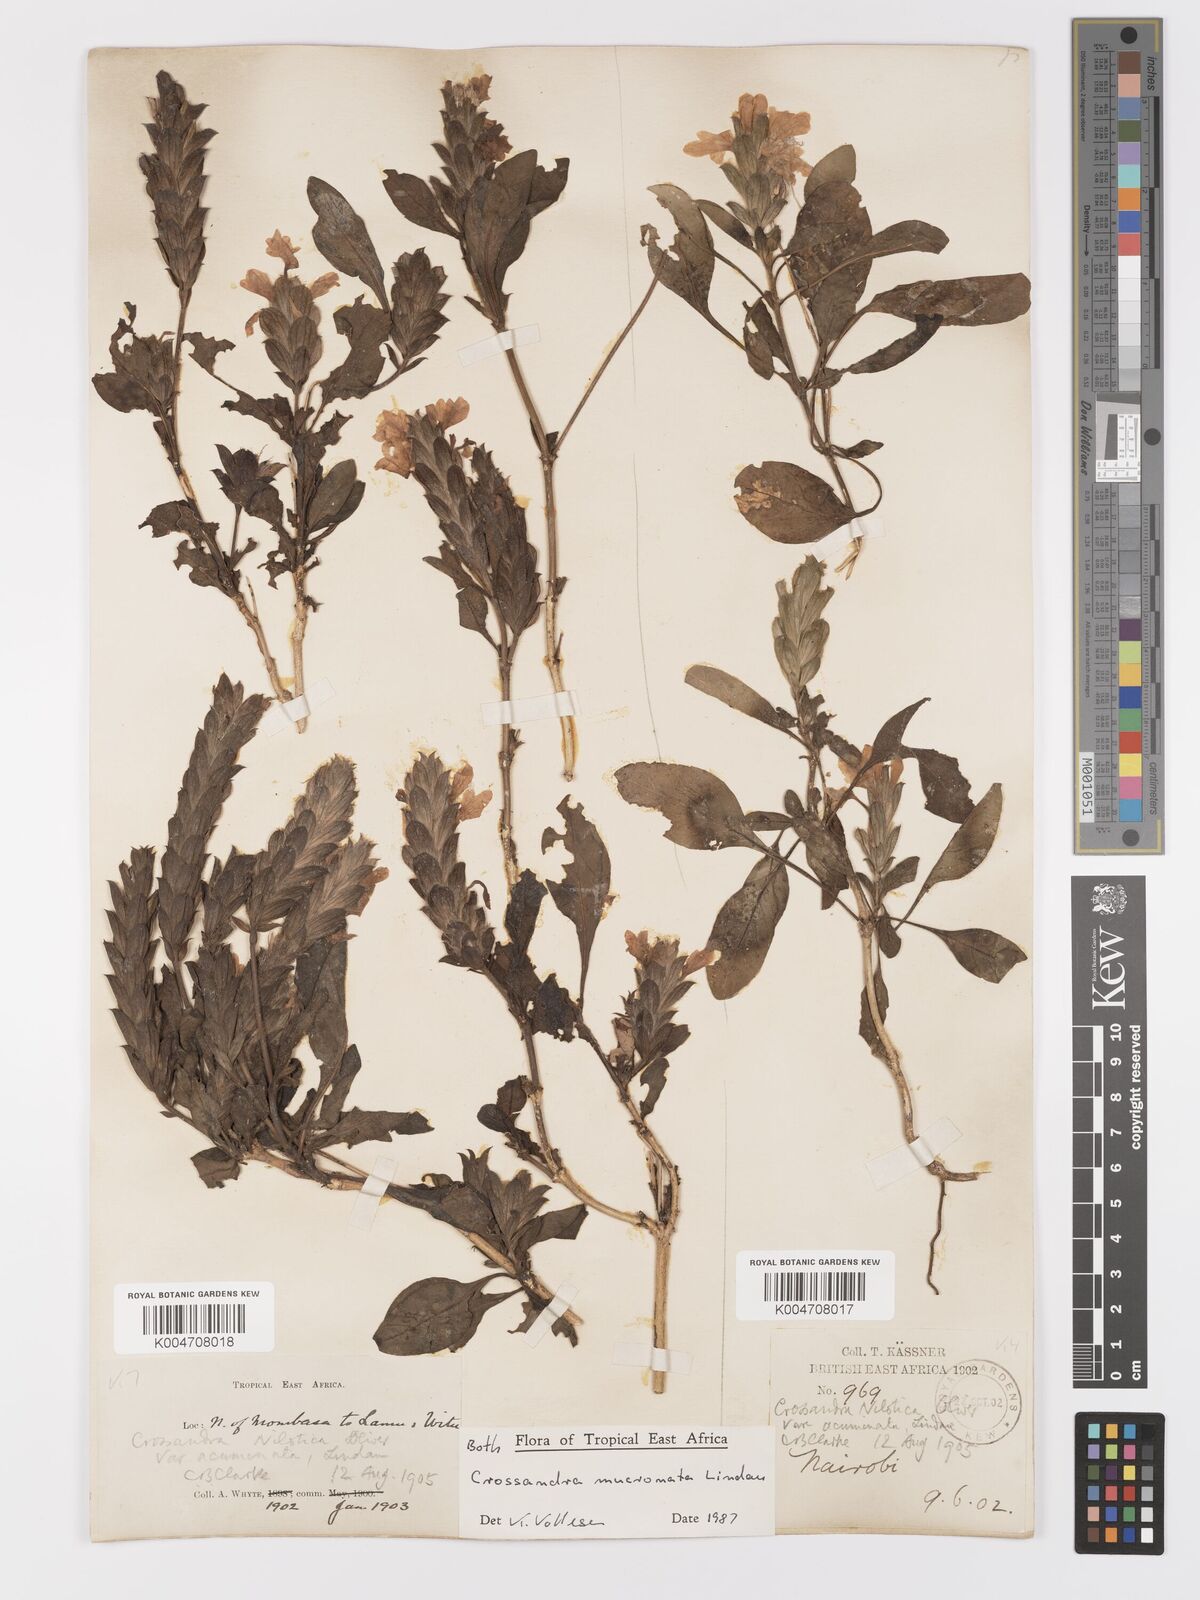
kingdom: Plantae
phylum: Tracheophyta
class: Magnoliopsida
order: Lamiales
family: Acanthaceae
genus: Crossandra
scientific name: Crossandra mucronata
